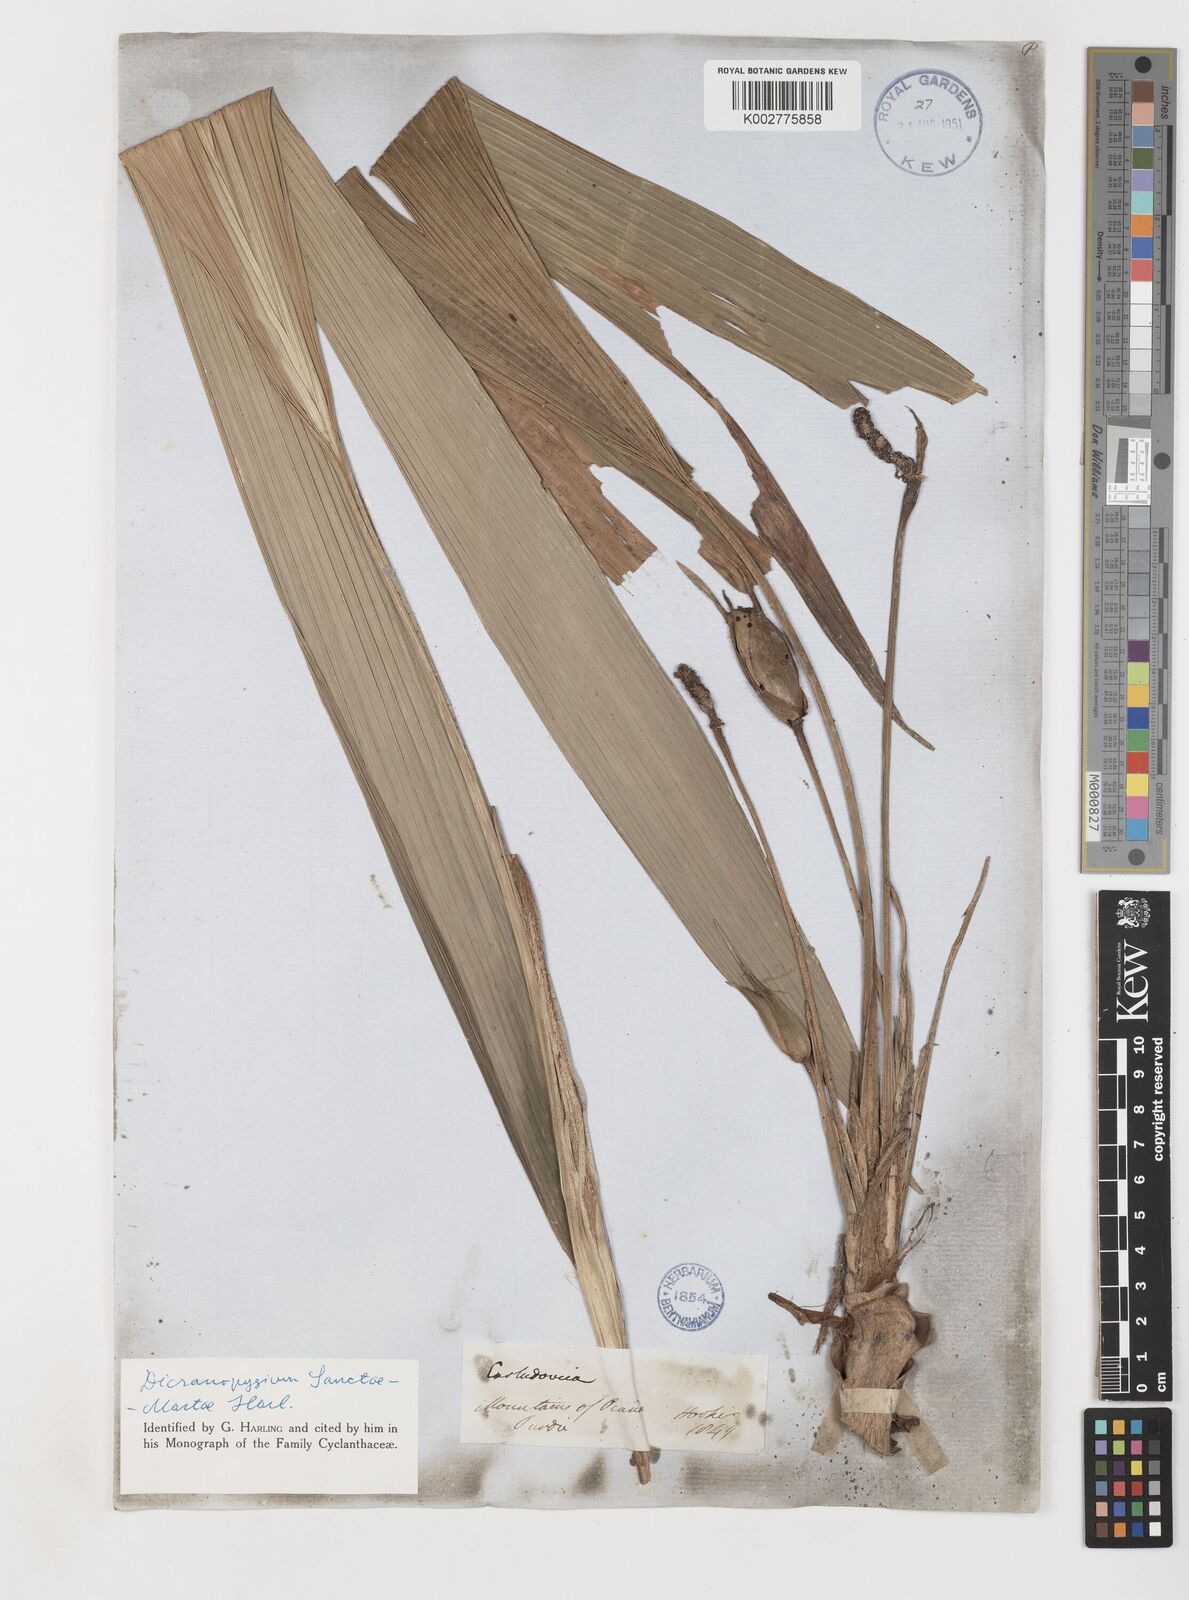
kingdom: Plantae
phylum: Tracheophyta
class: Liliopsida
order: Pandanales
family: Cyclanthaceae
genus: Dicranopygium
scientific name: Dicranopygium sanctae-martae
